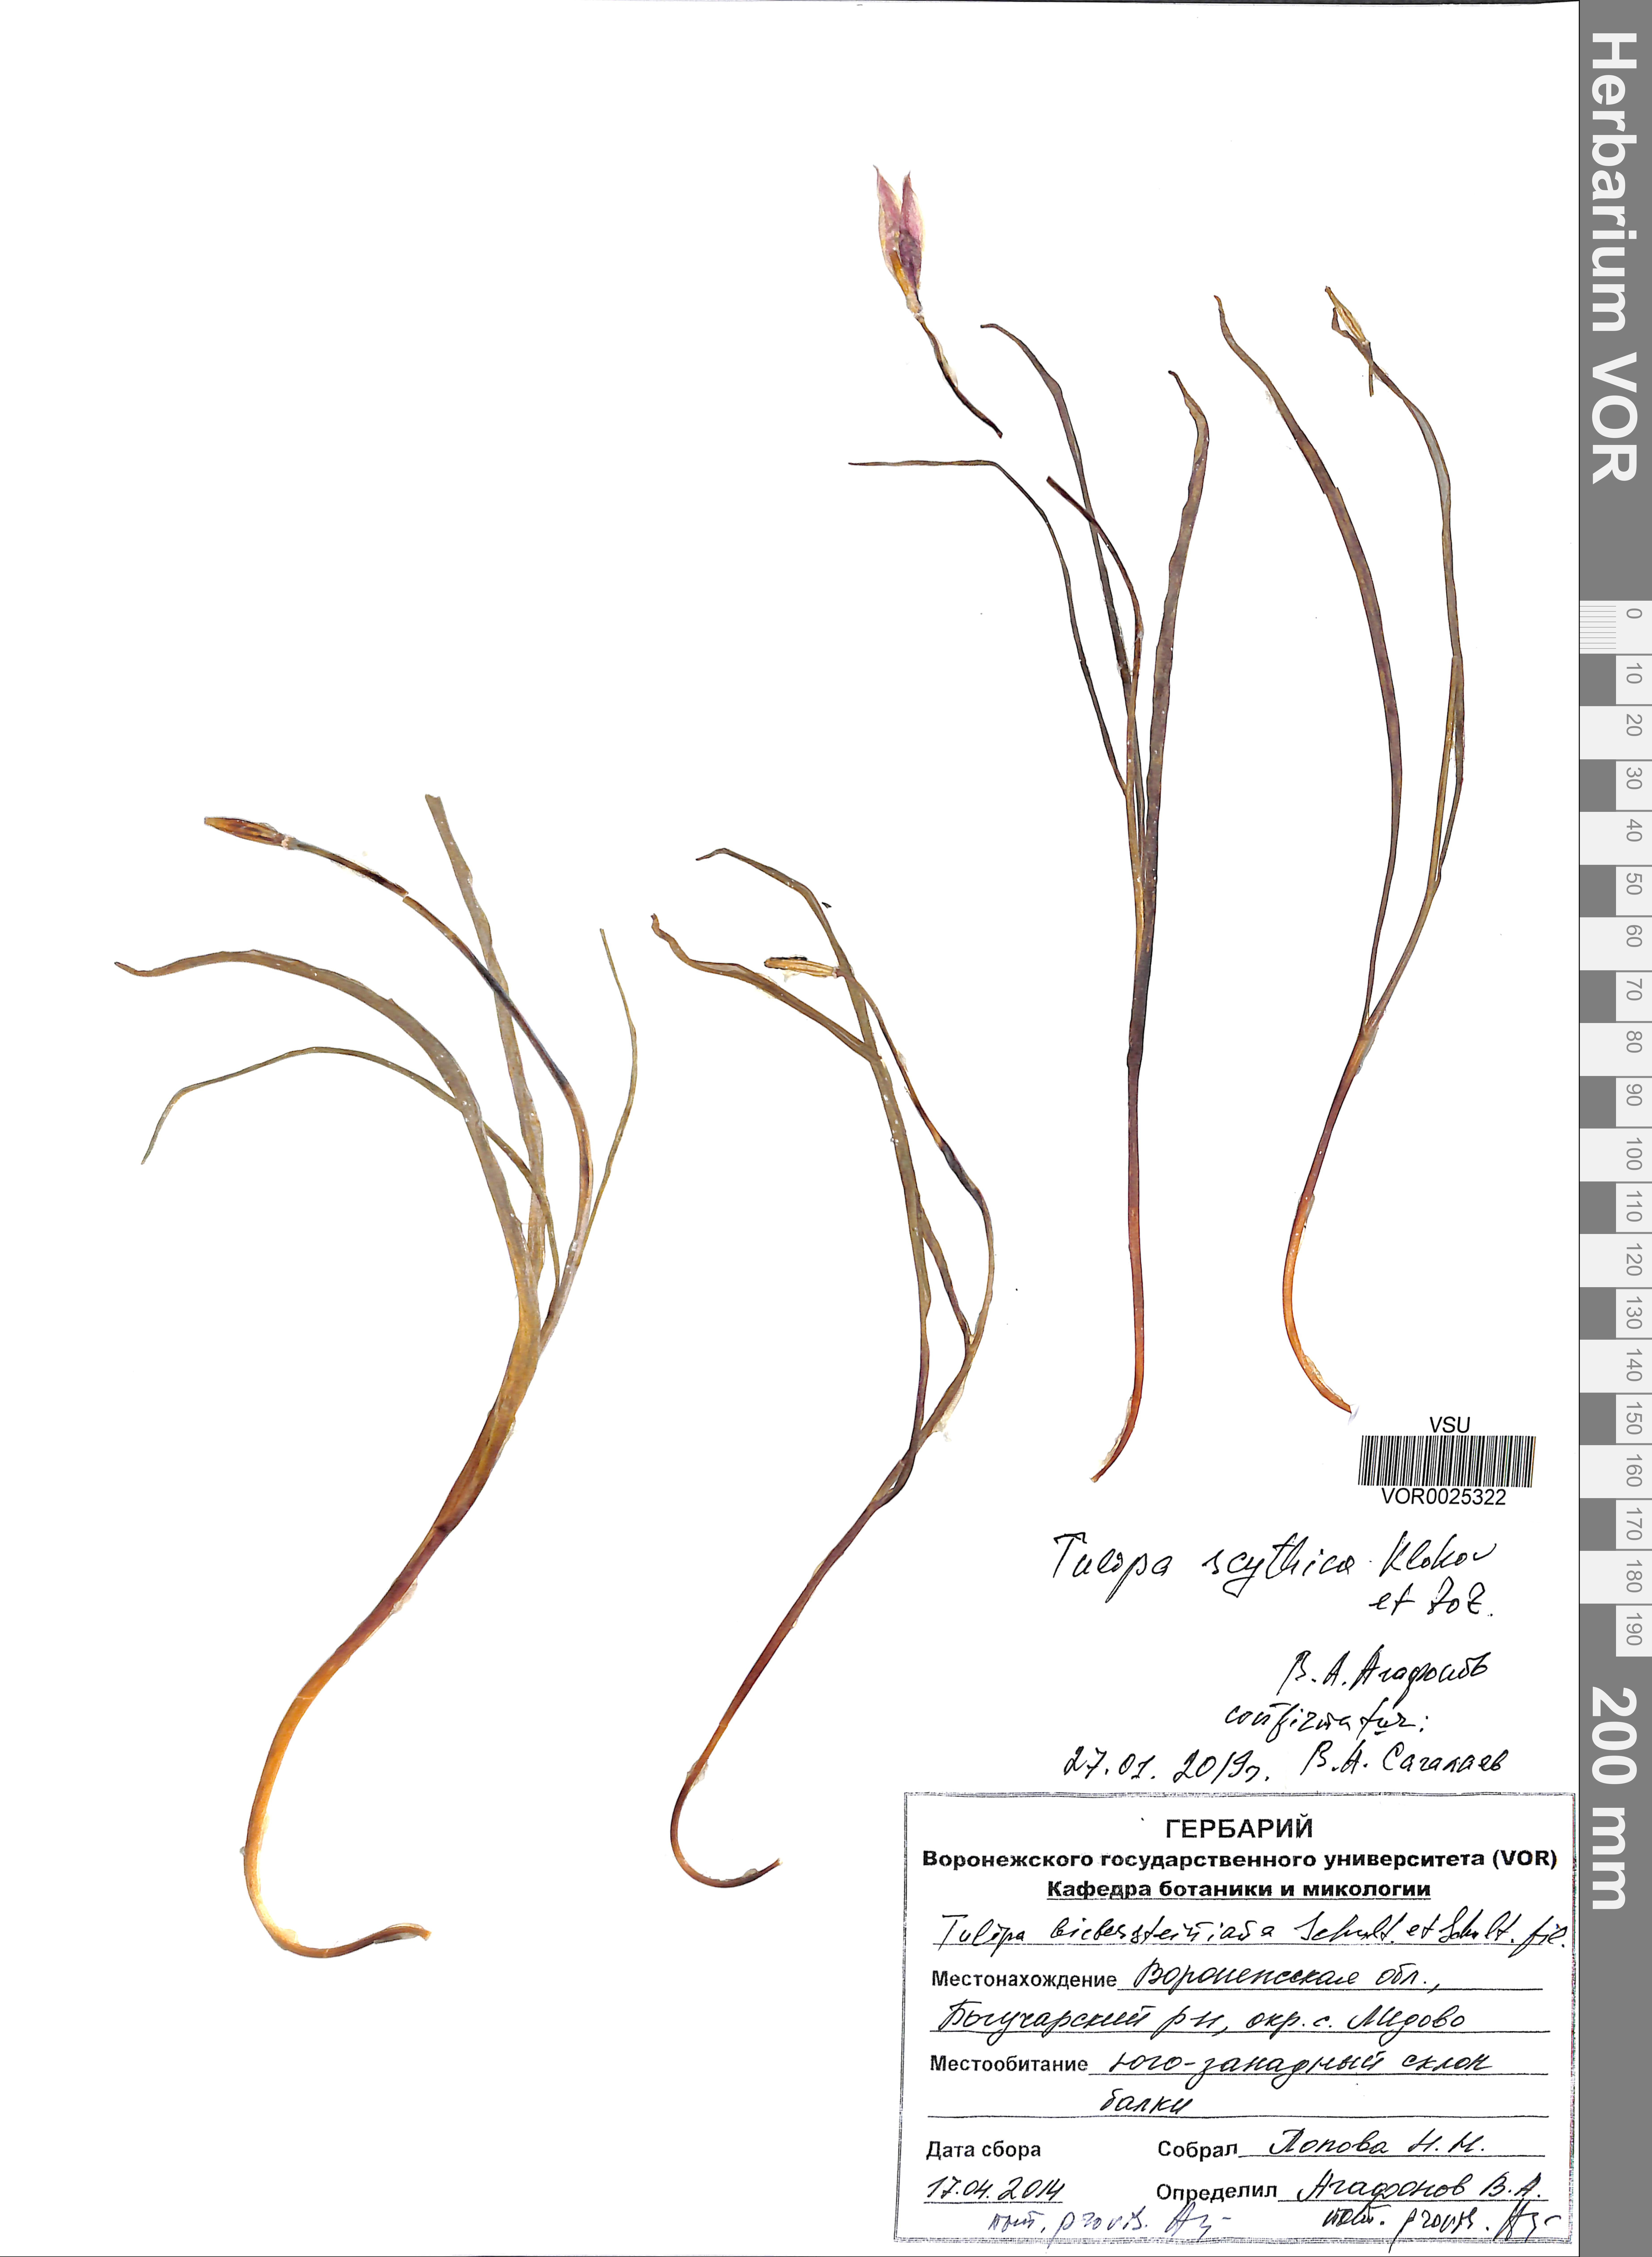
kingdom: Plantae
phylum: Tracheophyta
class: Liliopsida
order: Liliales
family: Liliaceae
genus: Tulipa
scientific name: Tulipa sylvestris
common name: Wild tulip
